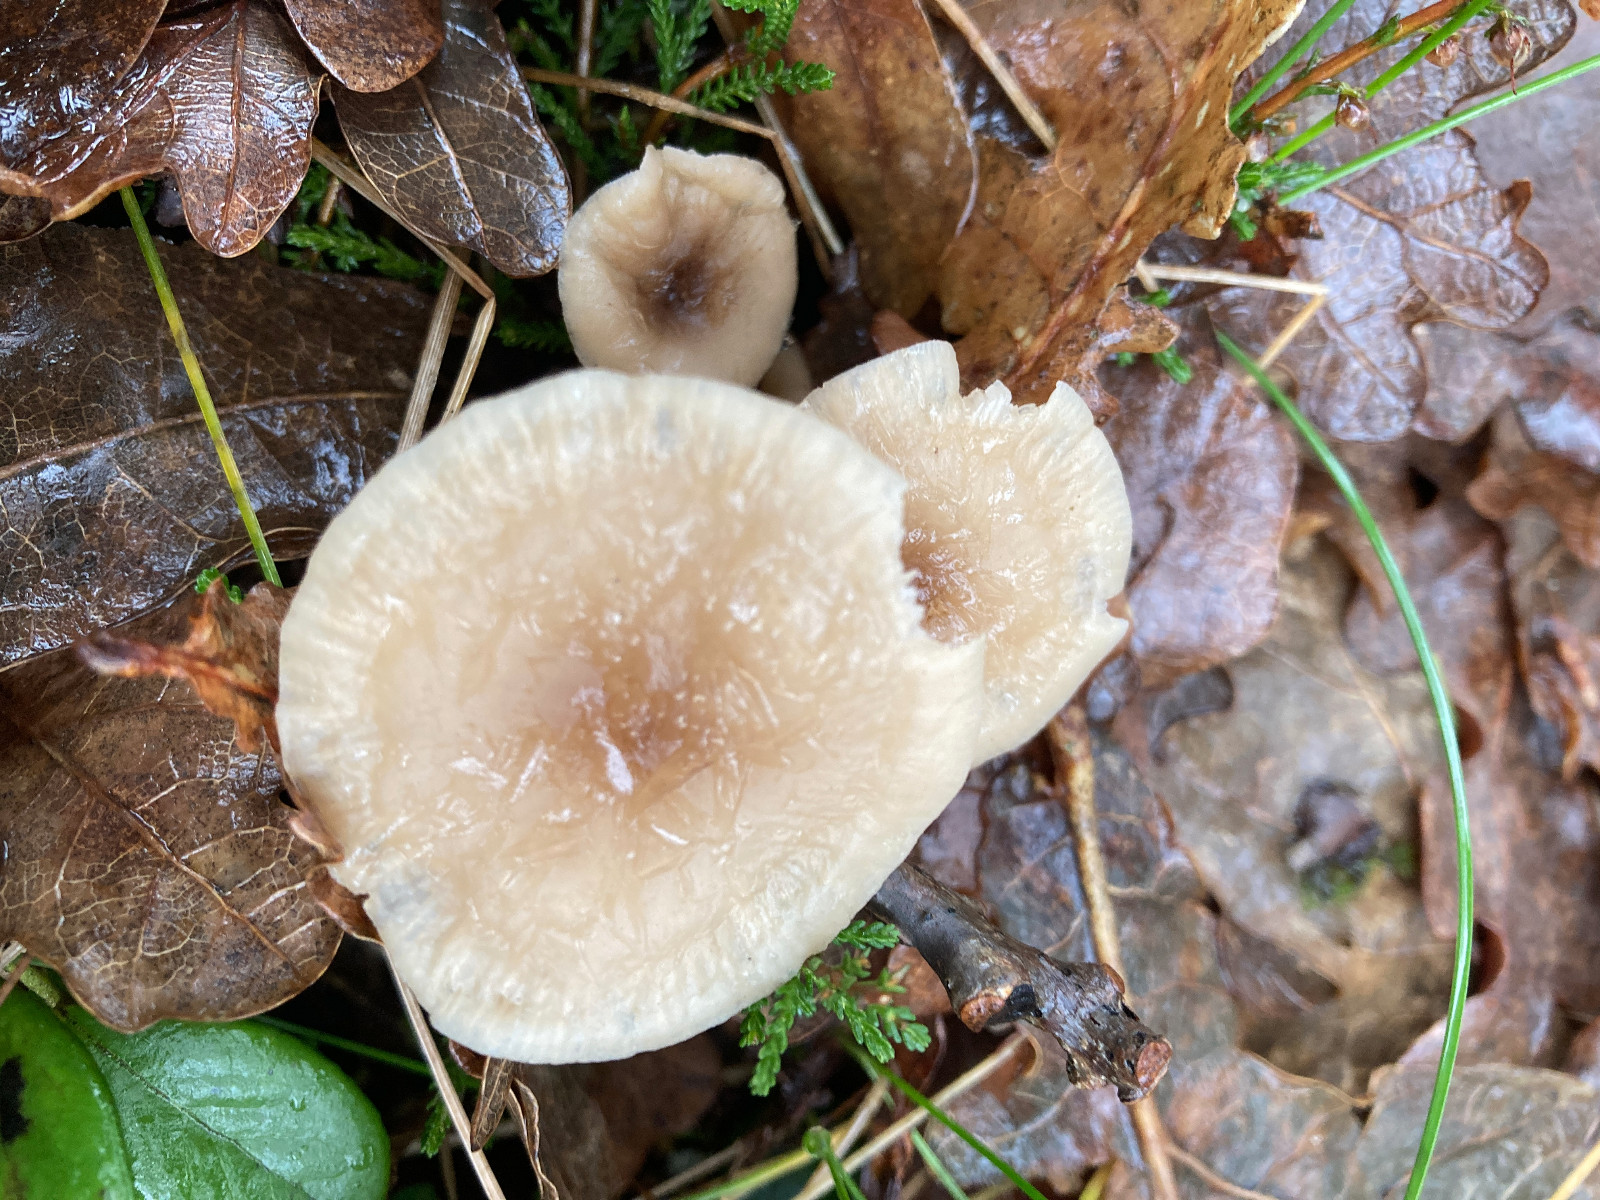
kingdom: Fungi
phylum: Basidiomycota
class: Agaricomycetes
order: Agaricales
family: Tricholomataceae
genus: Clitocybe
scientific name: Clitocybe fragrans
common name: vellugtende tragthat
